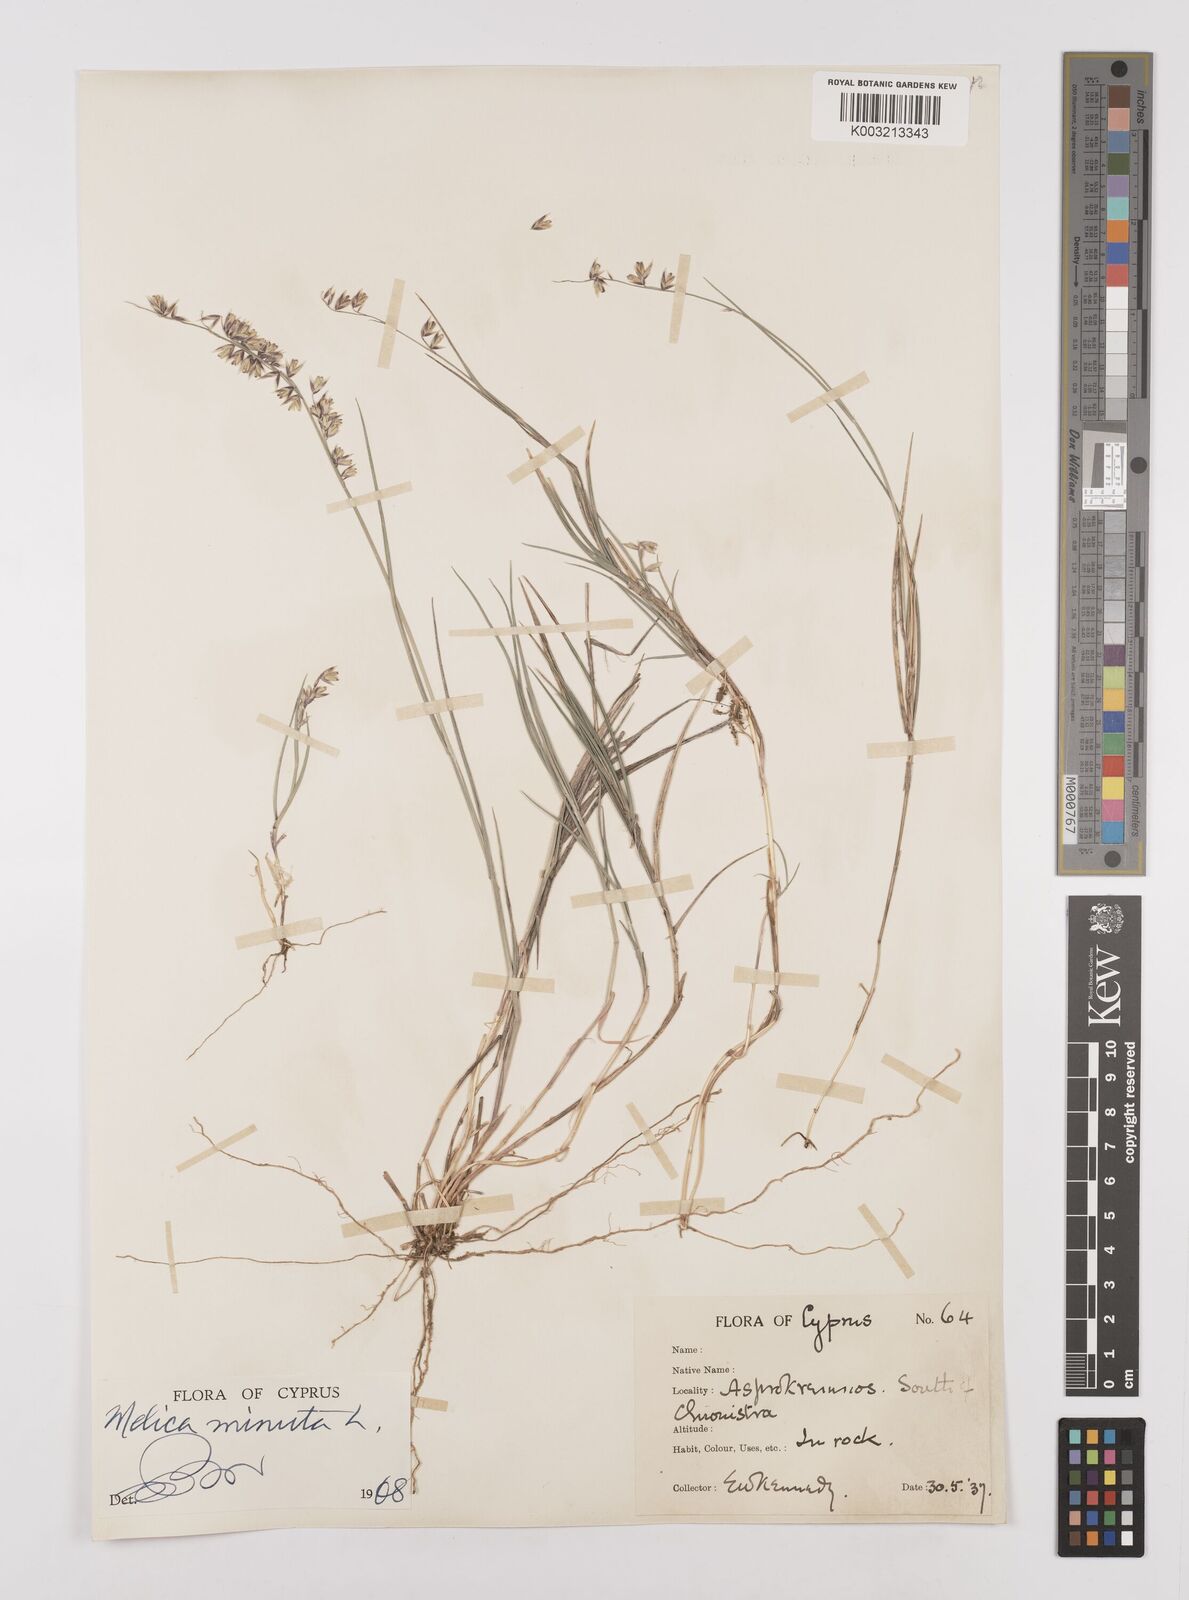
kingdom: Plantae
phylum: Tracheophyta
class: Liliopsida
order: Poales
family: Poaceae
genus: Melica
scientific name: Melica minuta
